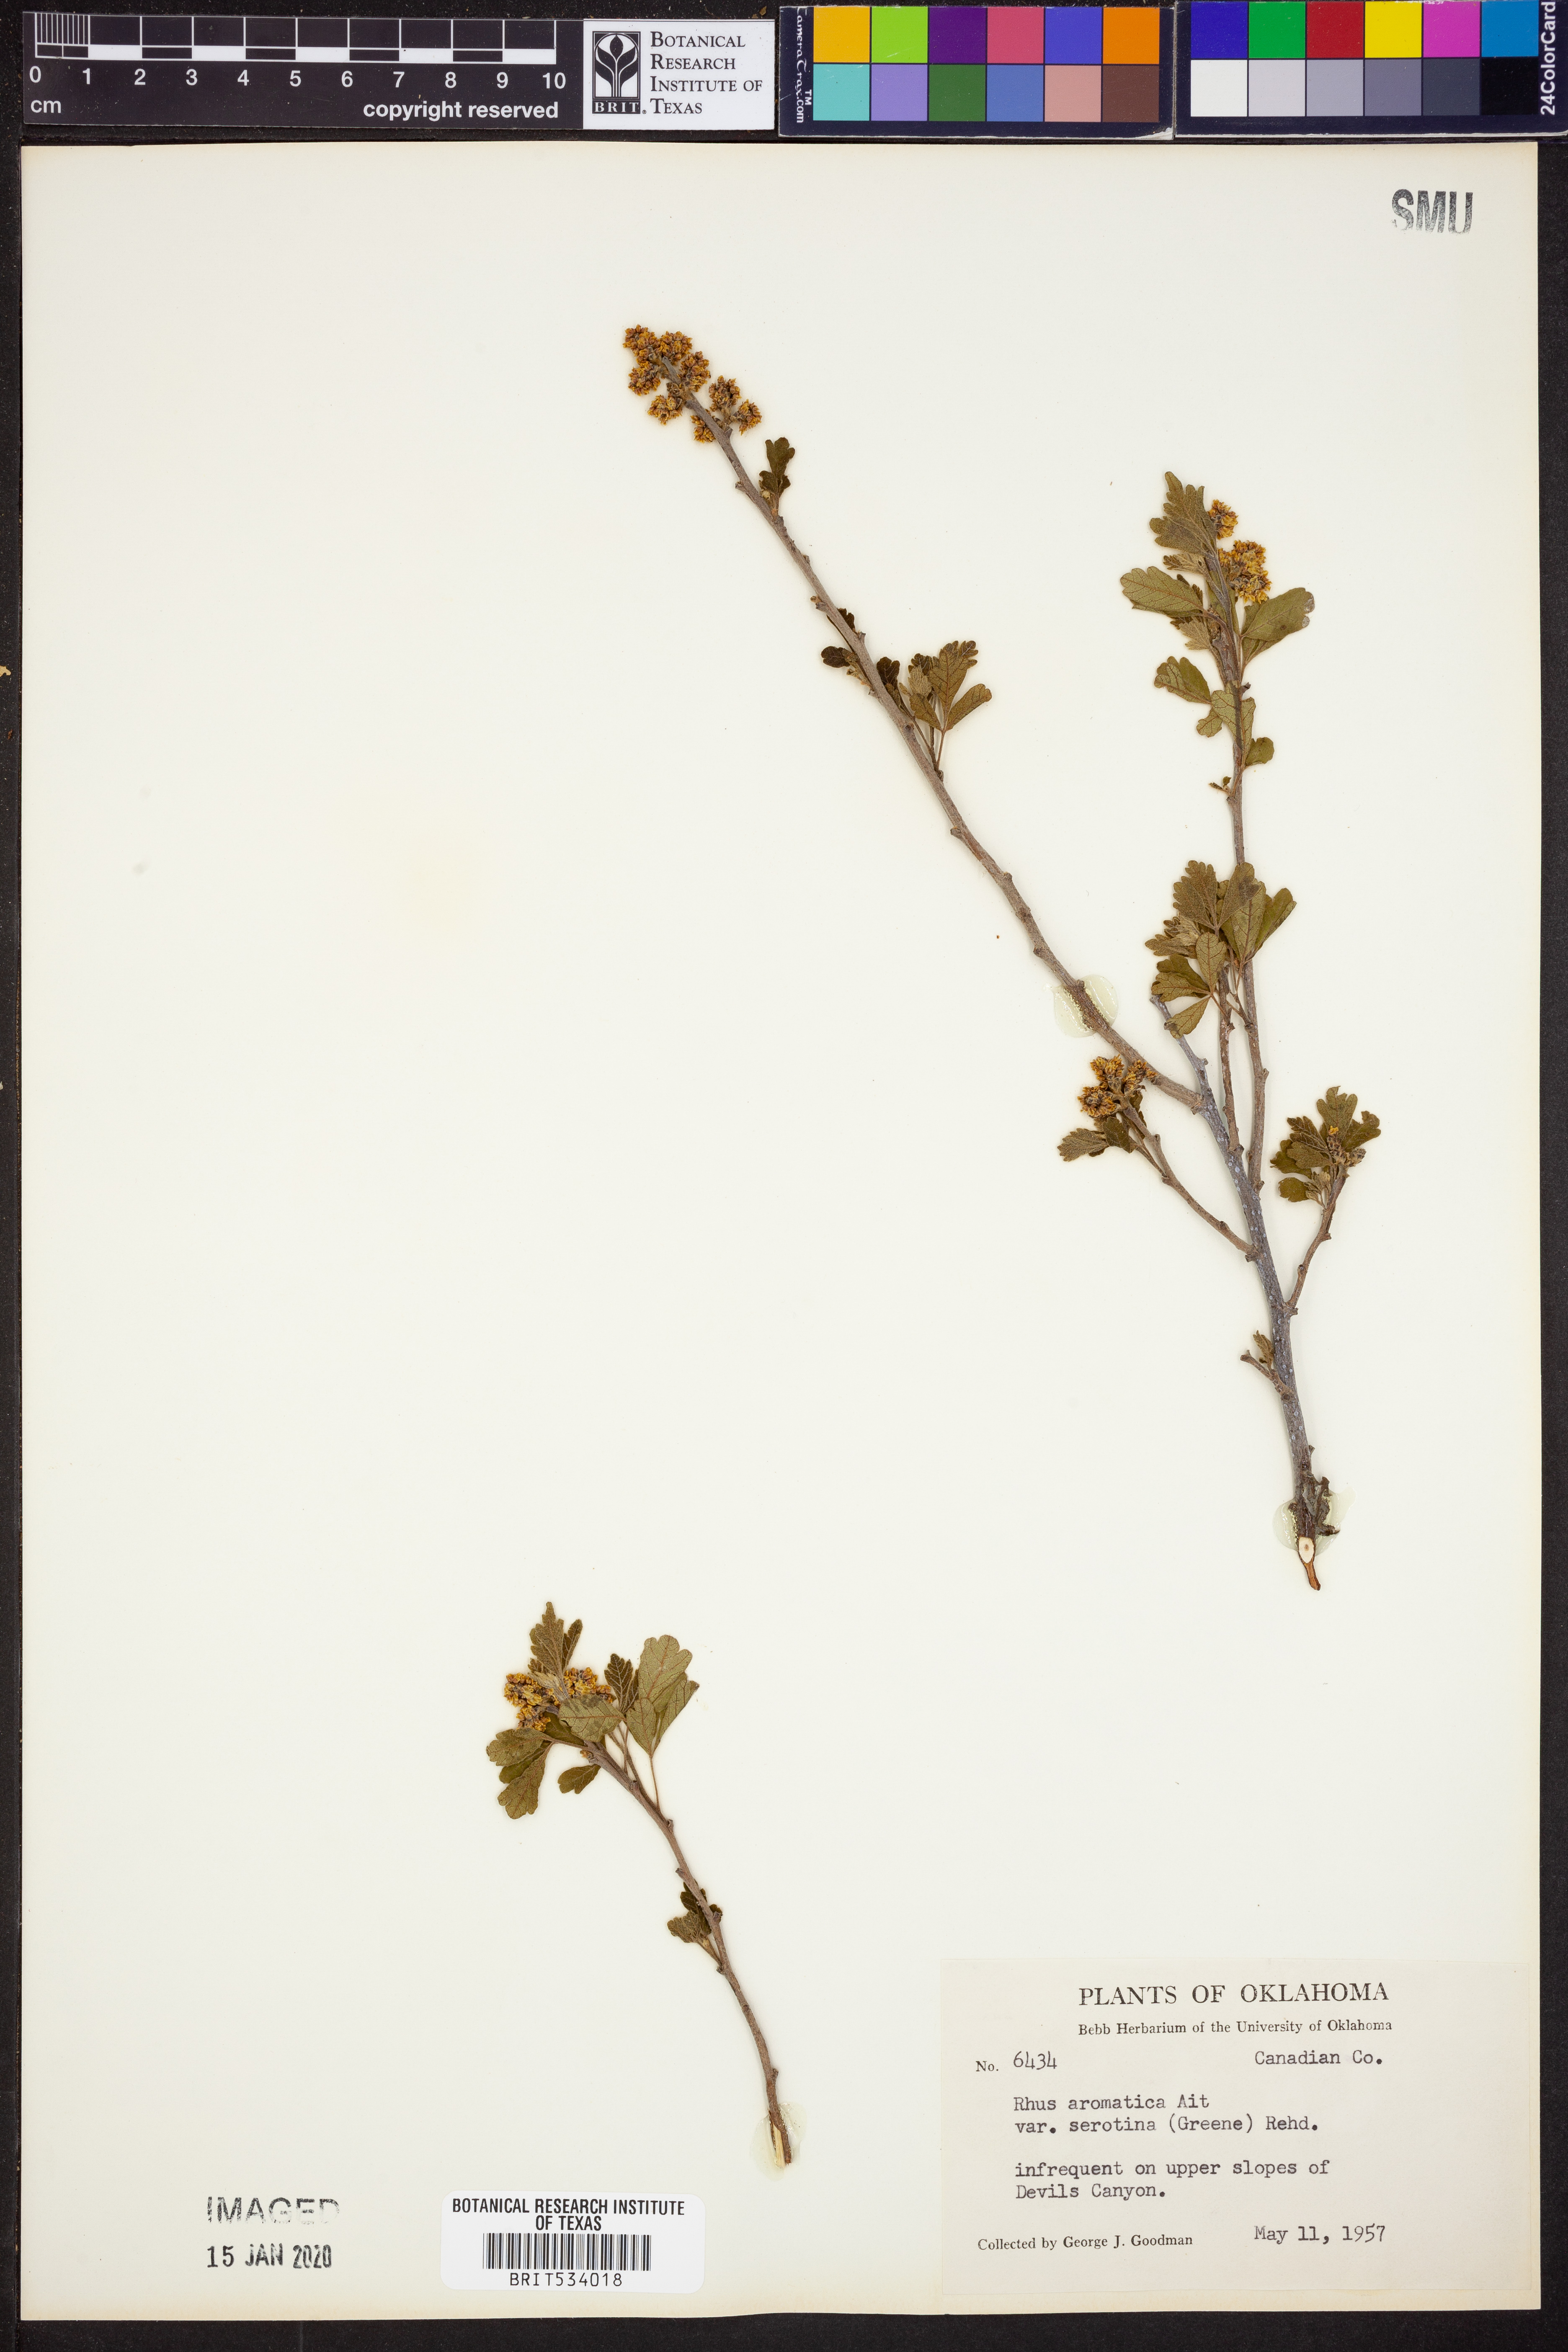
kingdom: Plantae
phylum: Tracheophyta
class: Magnoliopsida
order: Sapindales
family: Anacardiaceae
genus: Rhus
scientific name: Rhus aromatica
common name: Aromatic sumac
